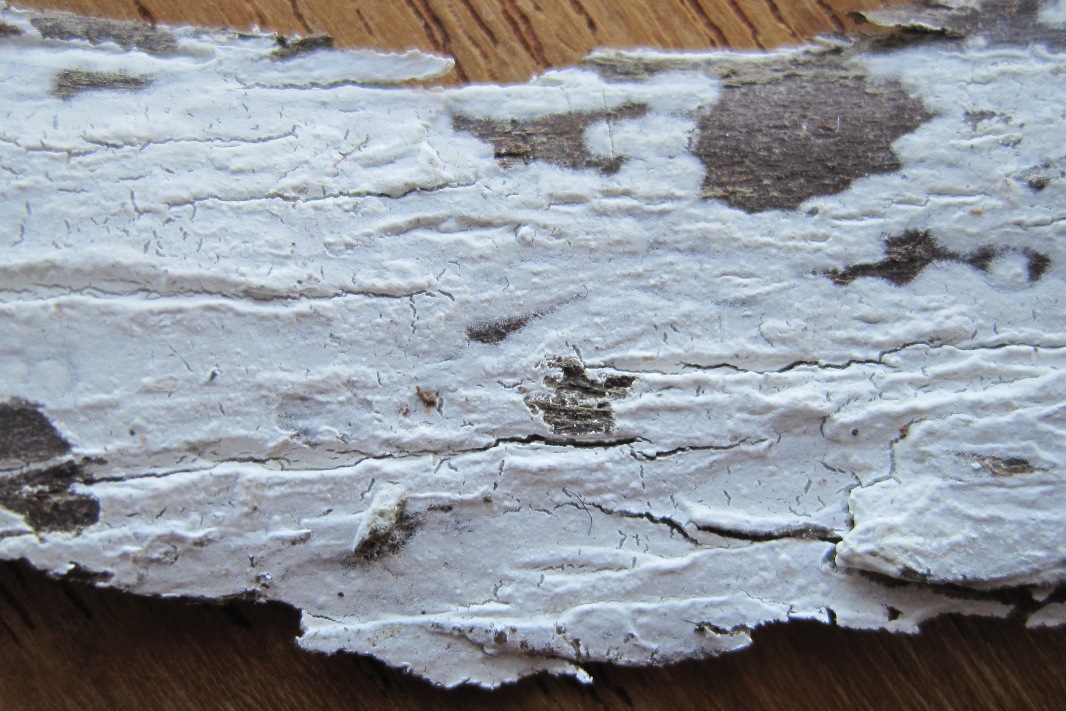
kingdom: Fungi
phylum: Basidiomycota
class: Agaricomycetes
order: Corticiales
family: Corticiaceae
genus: Lyomyces
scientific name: Lyomyces sambuci
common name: almindelig hyldehinde
